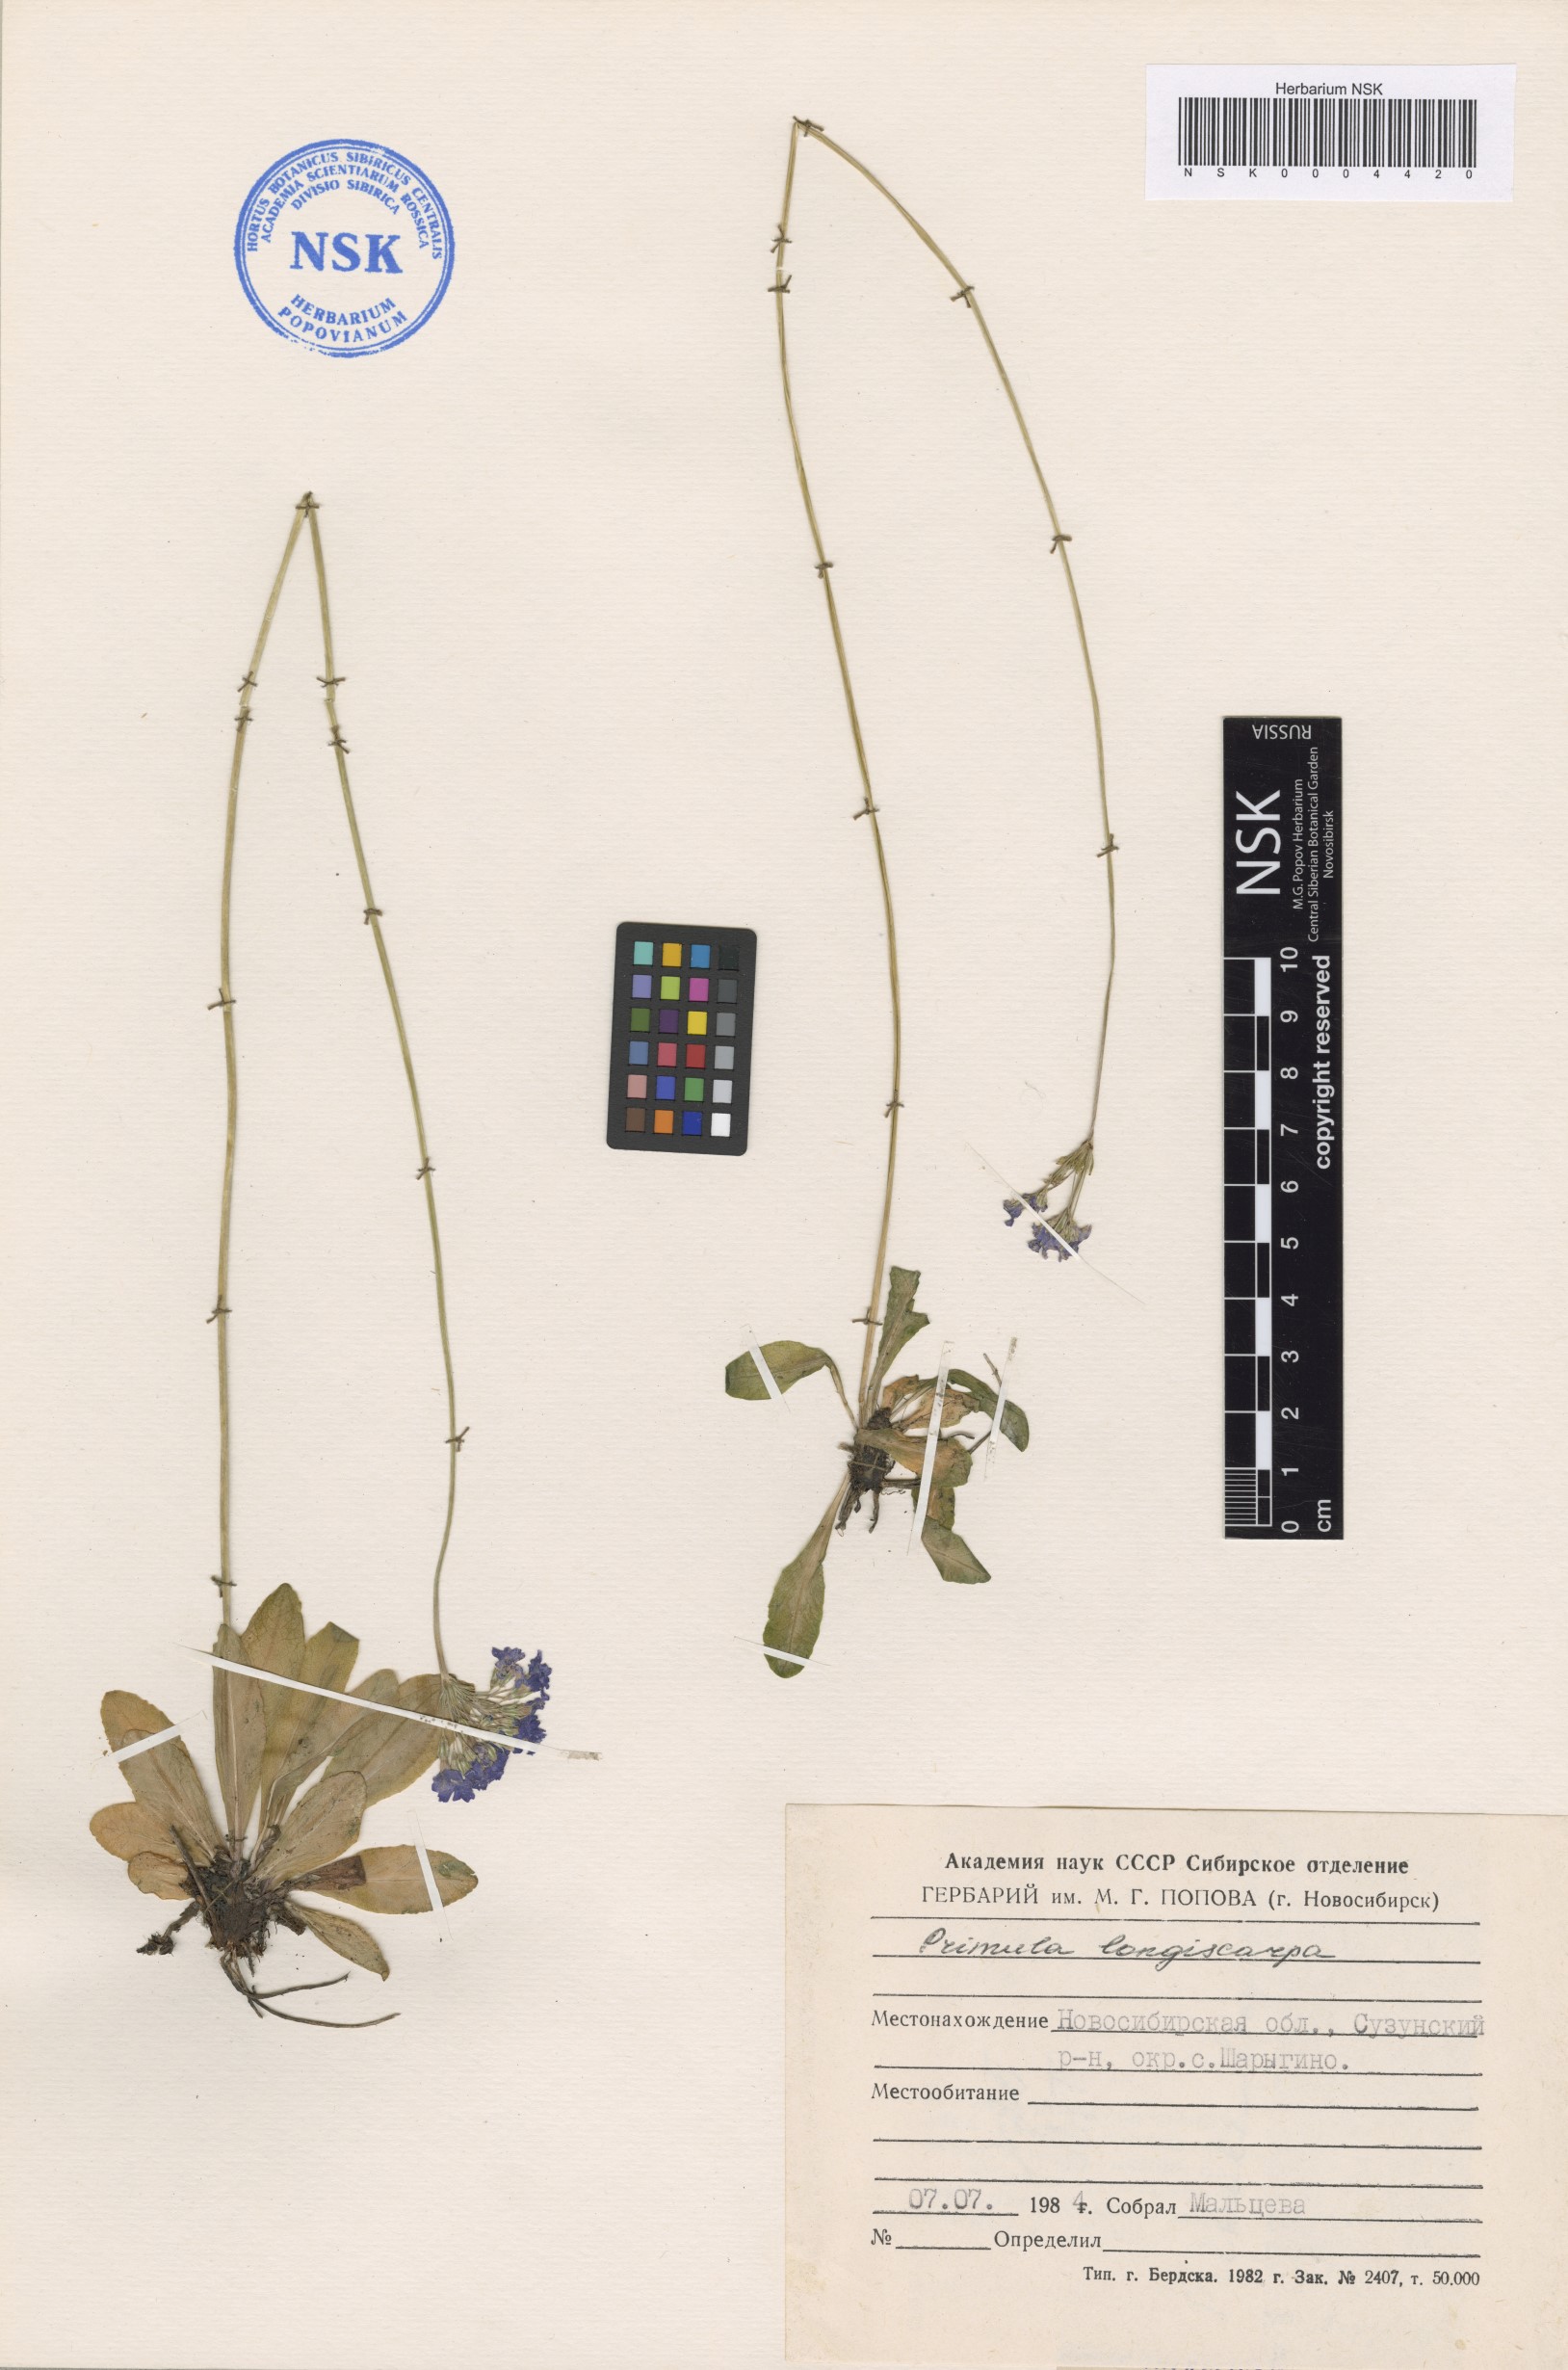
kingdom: Plantae
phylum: Tracheophyta
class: Magnoliopsida
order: Ericales
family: Primulaceae
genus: Primula
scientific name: Primula longiscapa
